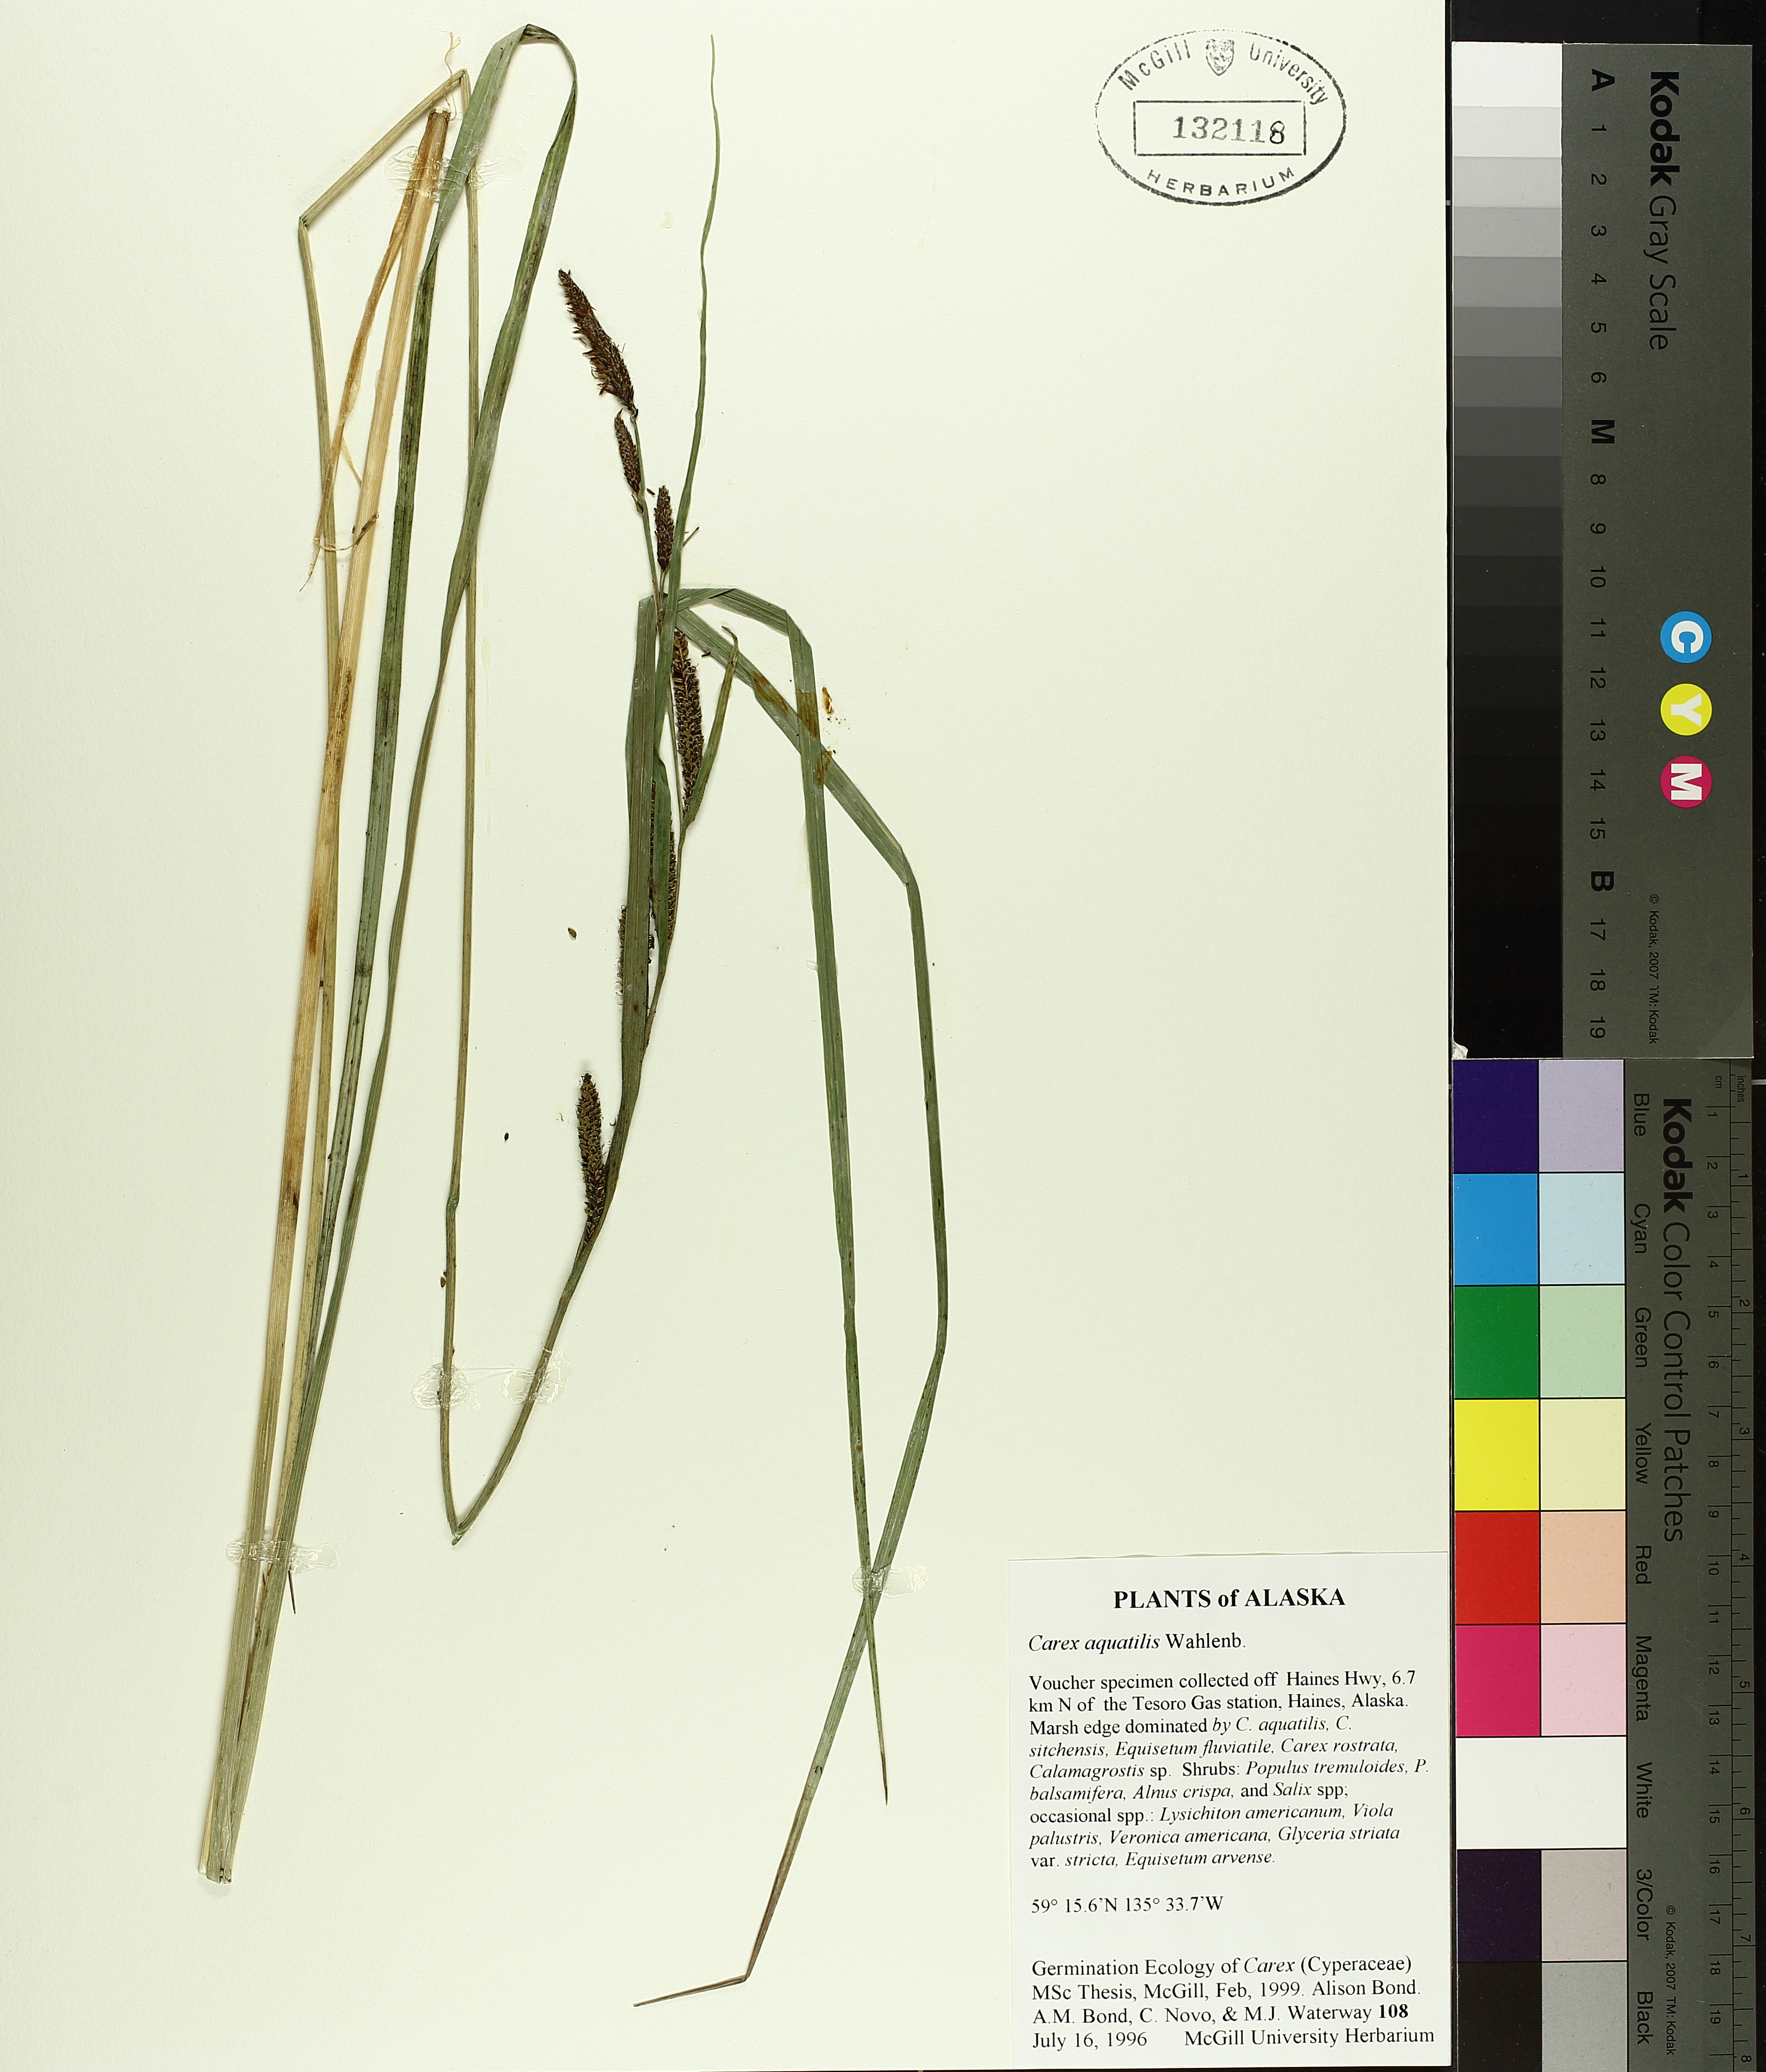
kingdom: Plantae
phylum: Tracheophyta
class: Liliopsida
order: Poales
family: Cyperaceae
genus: Carex
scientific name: Carex aquatilis
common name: Water sedge
